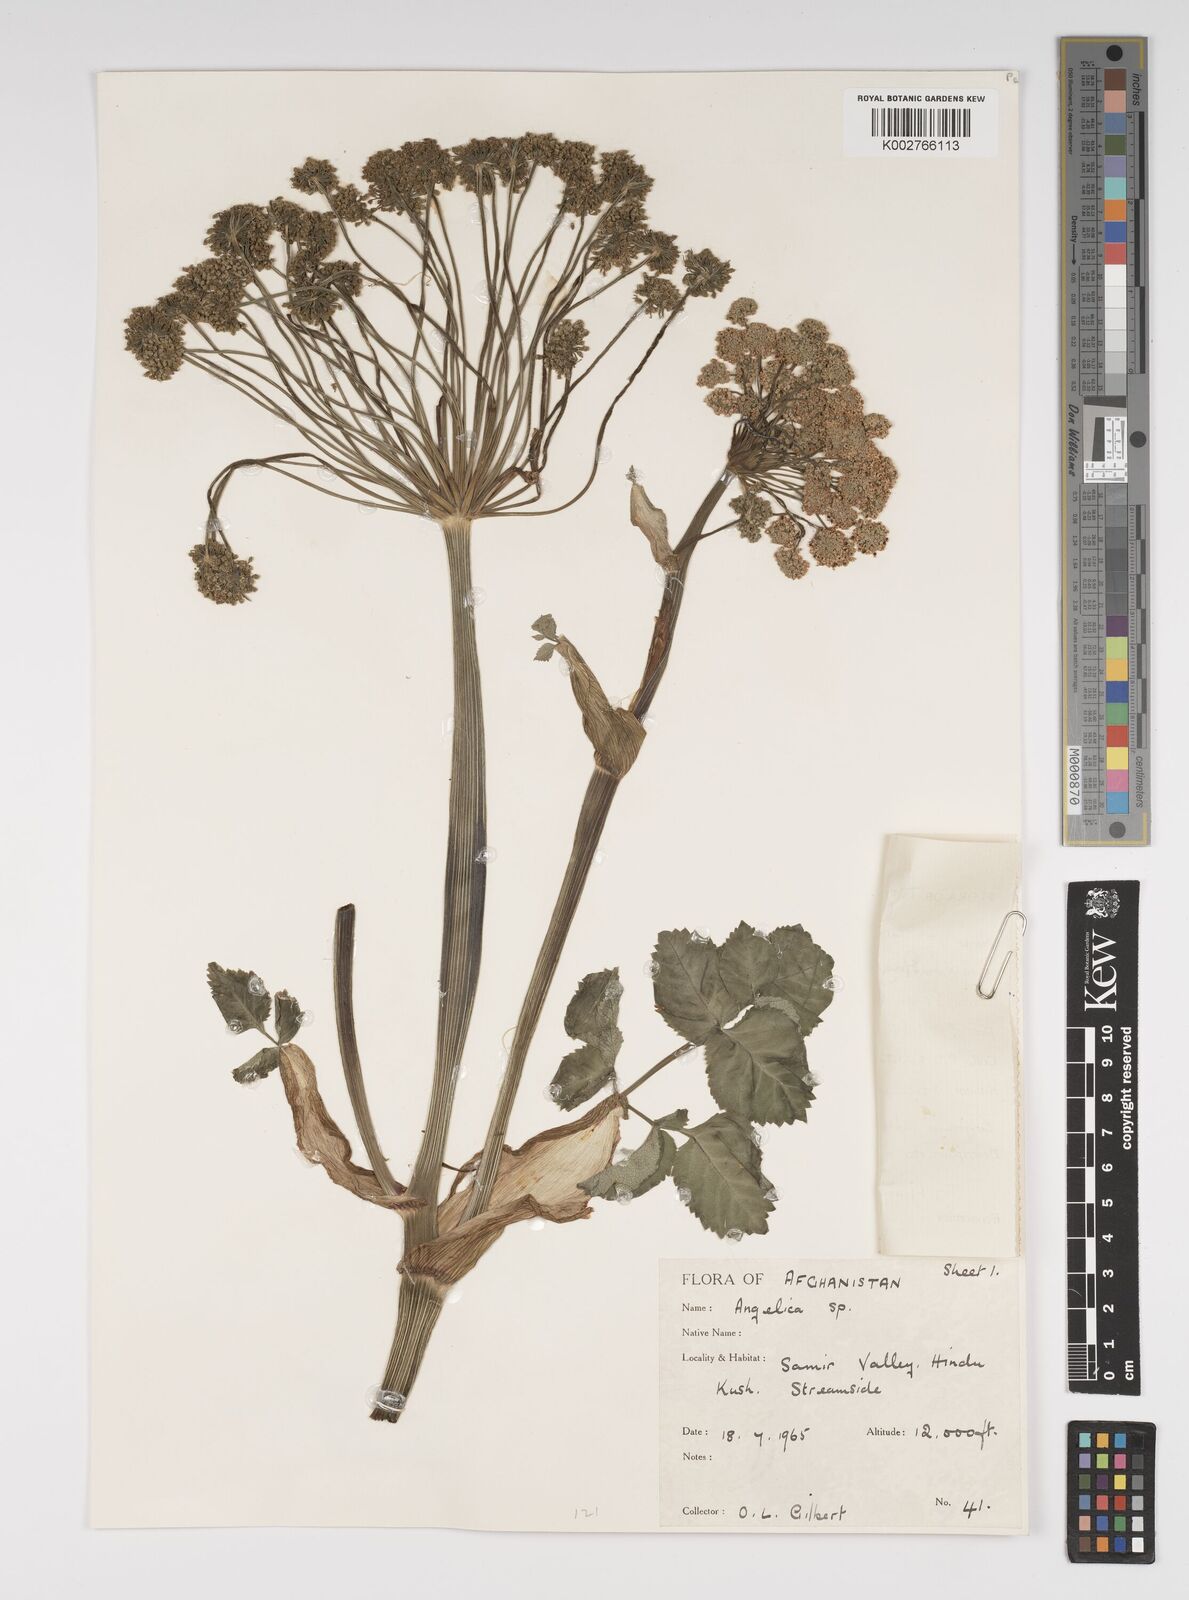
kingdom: Plantae
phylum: Tracheophyta
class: Magnoliopsida
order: Apiales
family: Apiaceae
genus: Angelica
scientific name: Angelica
